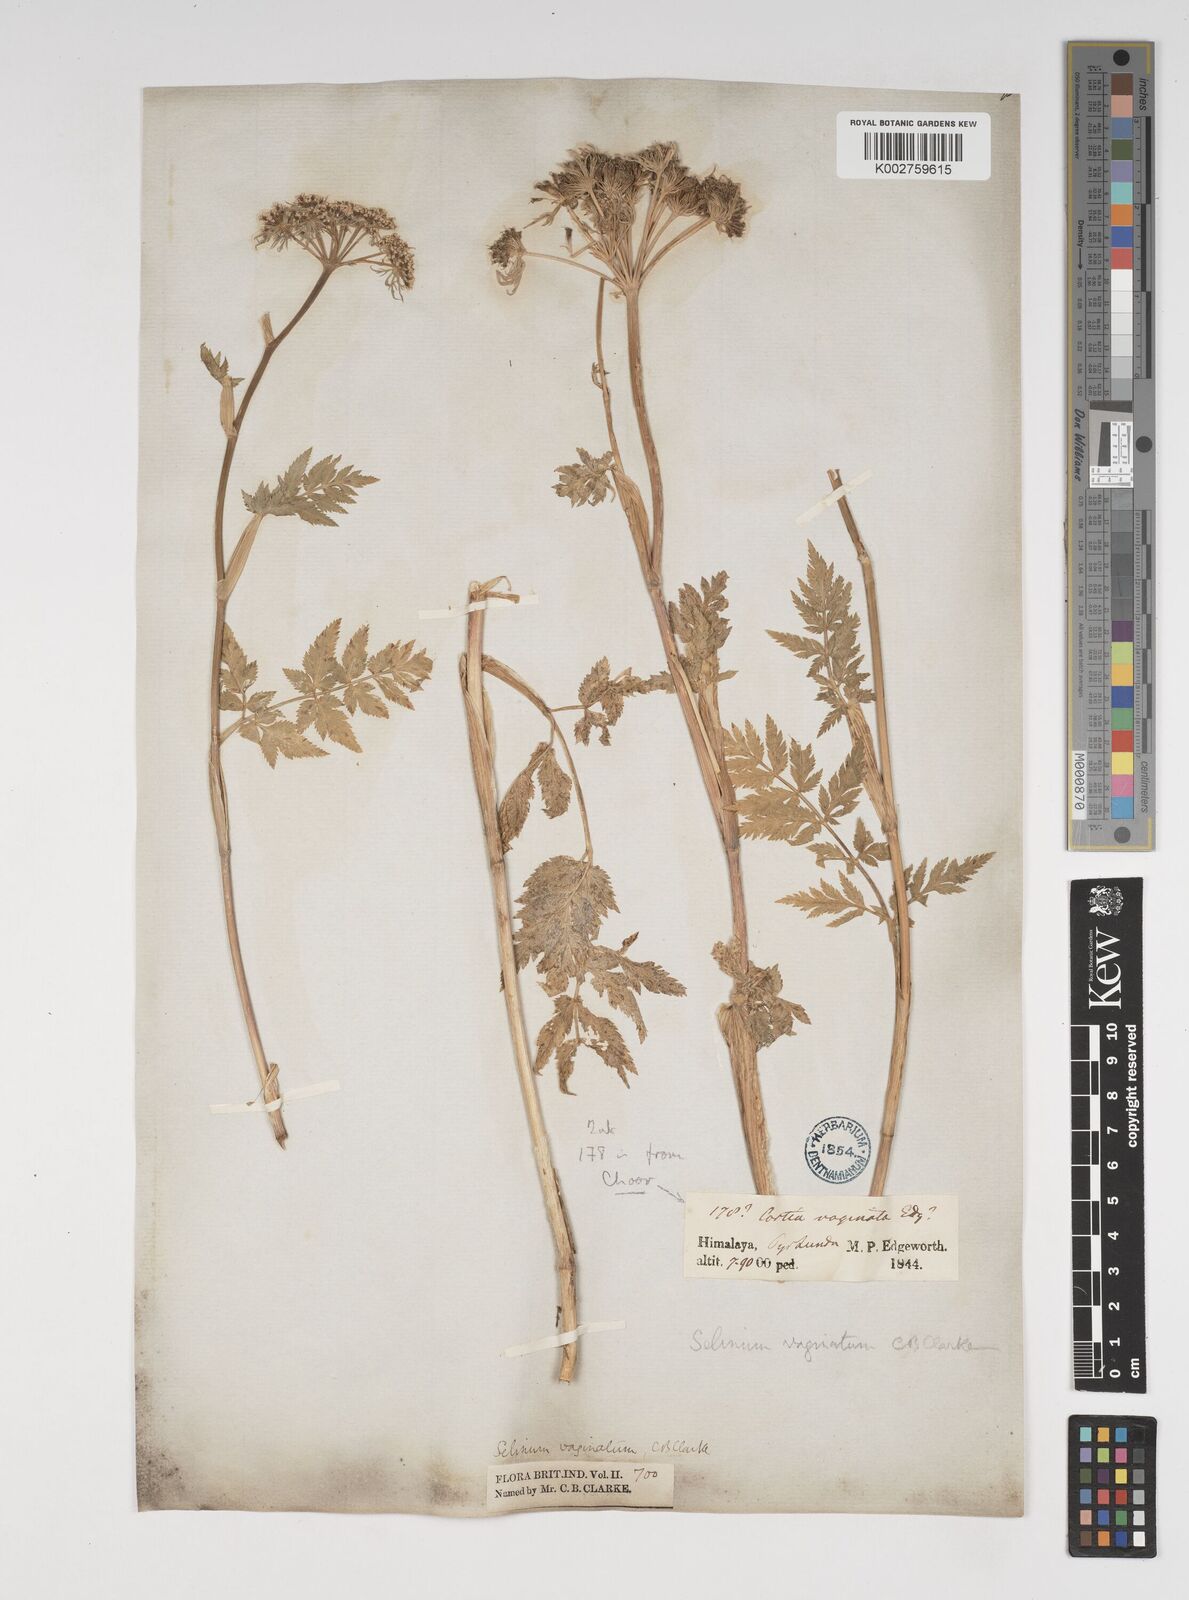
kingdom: Plantae
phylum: Tracheophyta
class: Magnoliopsida
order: Apiales
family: Apiaceae
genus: Selinum
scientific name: Selinum vaginatum
